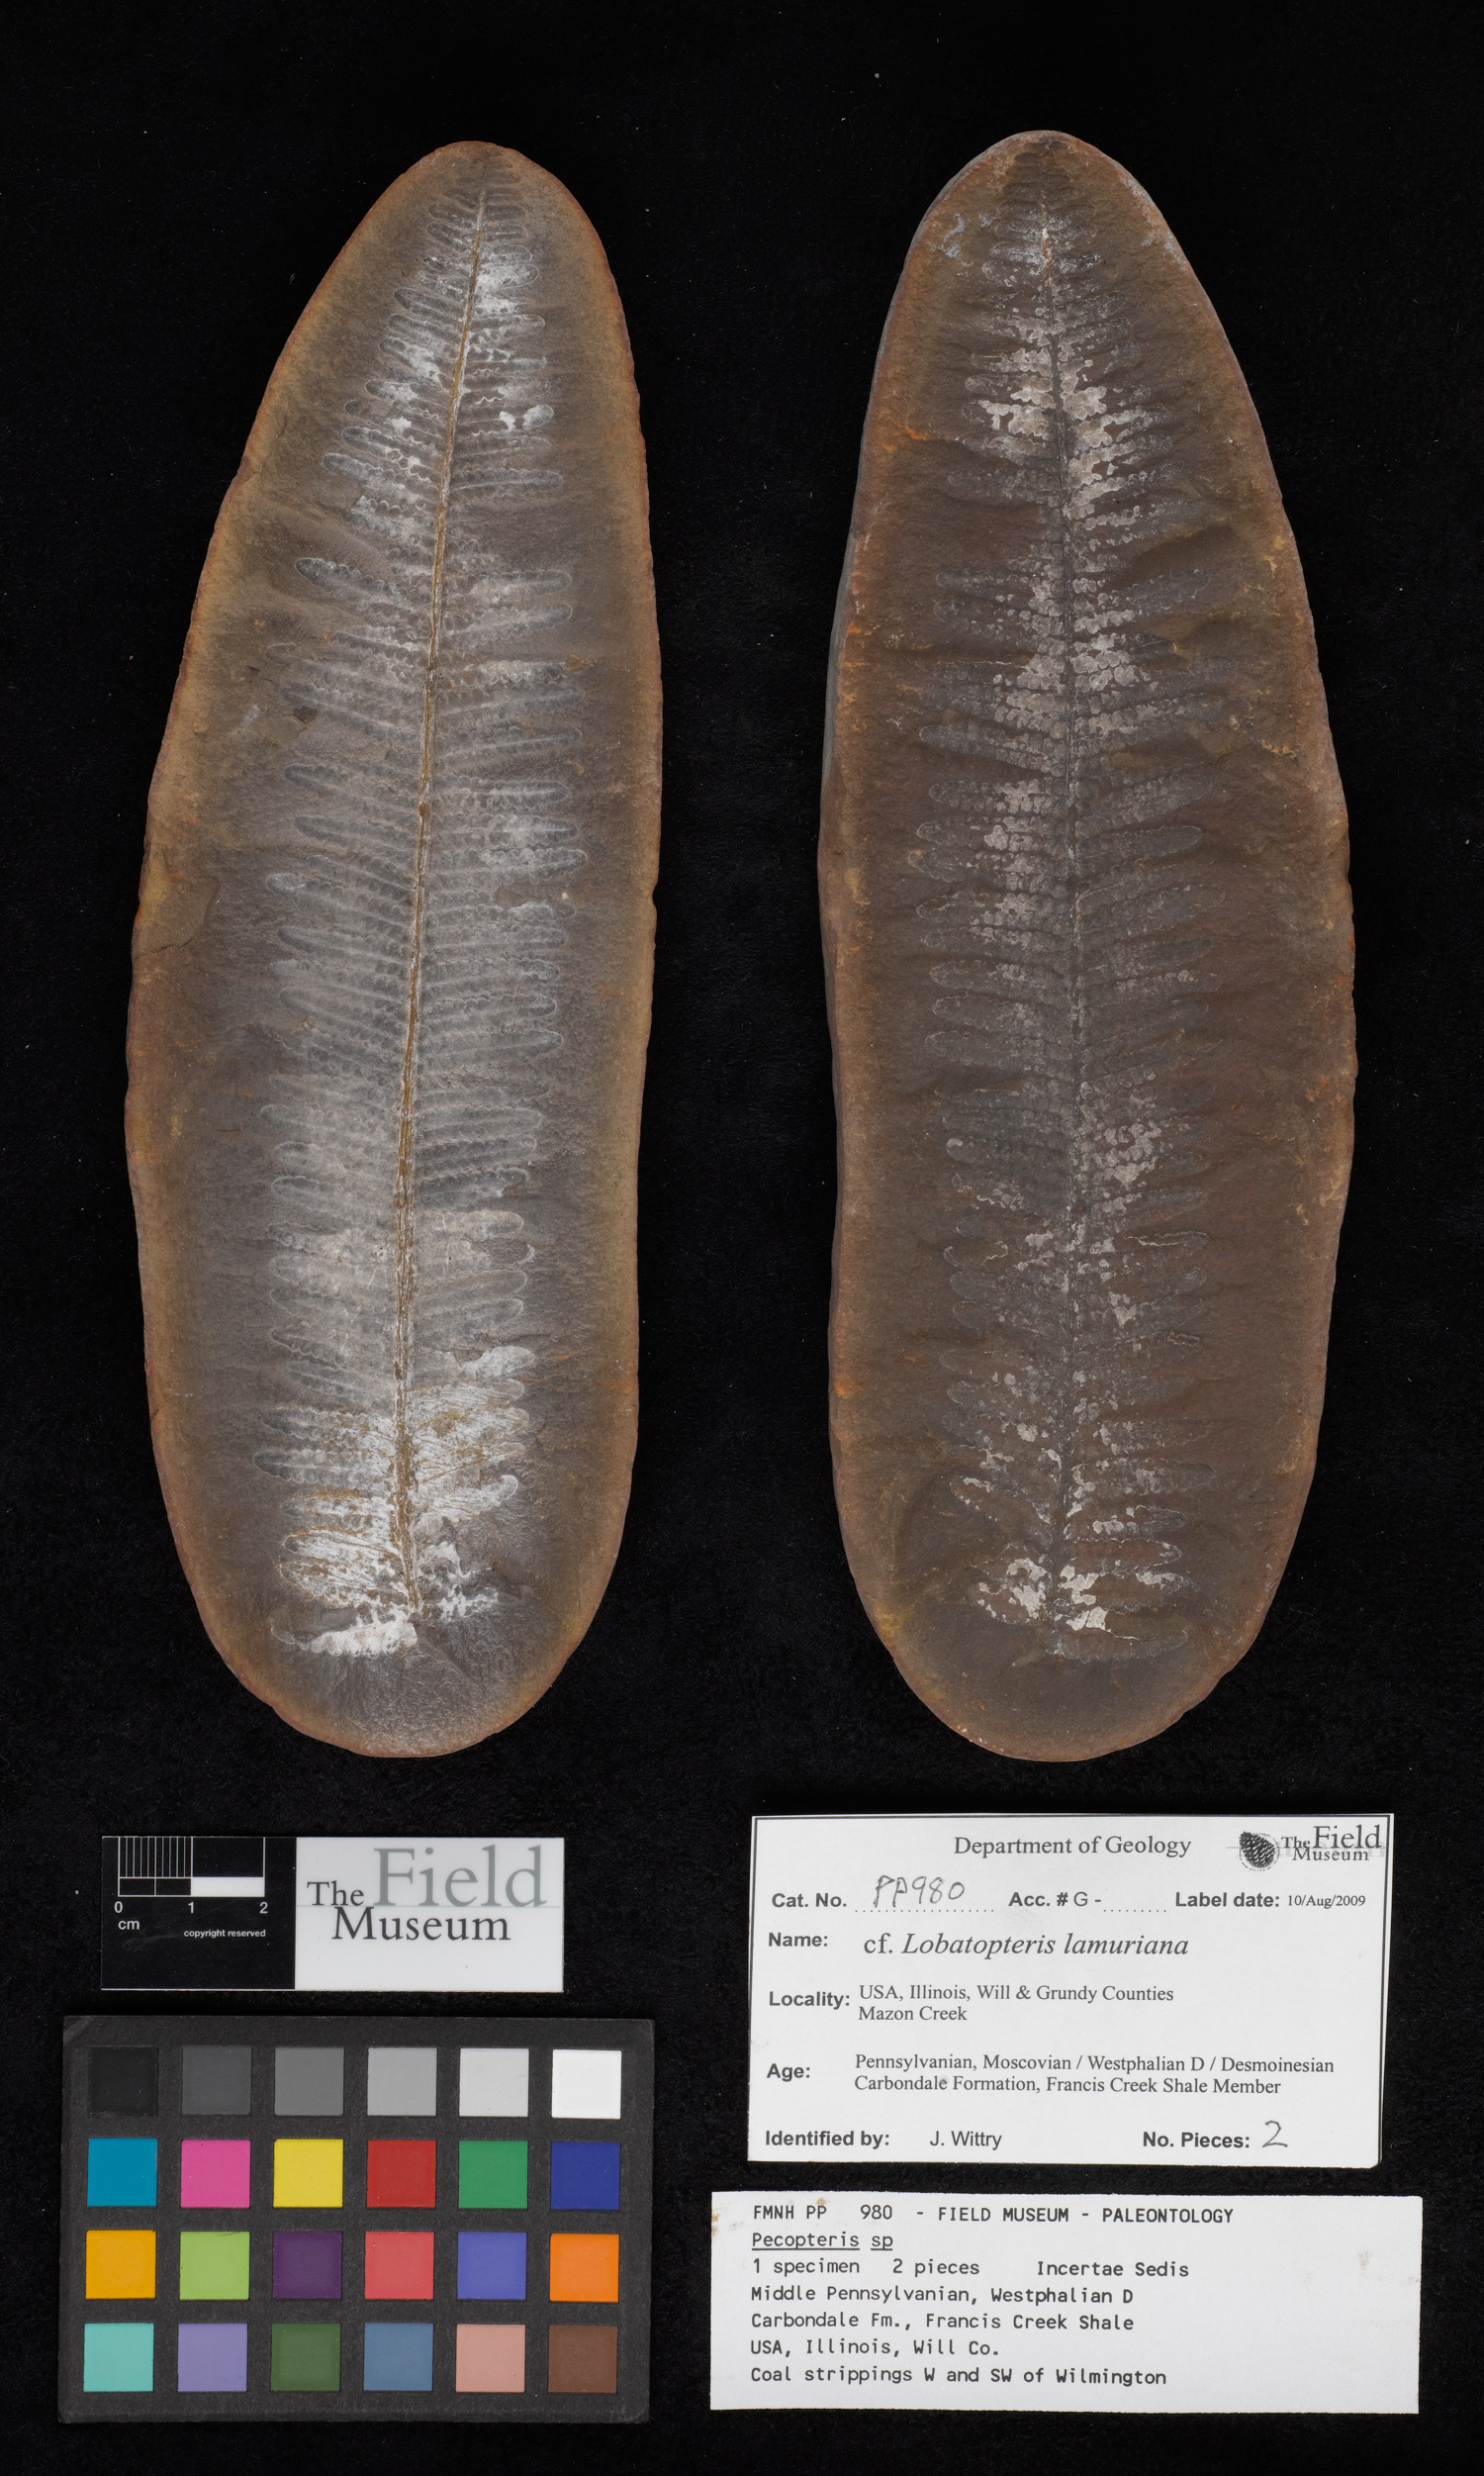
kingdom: Plantae
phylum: Tracheophyta
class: Polypodiopsida
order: Marattiales
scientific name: Marattiales
